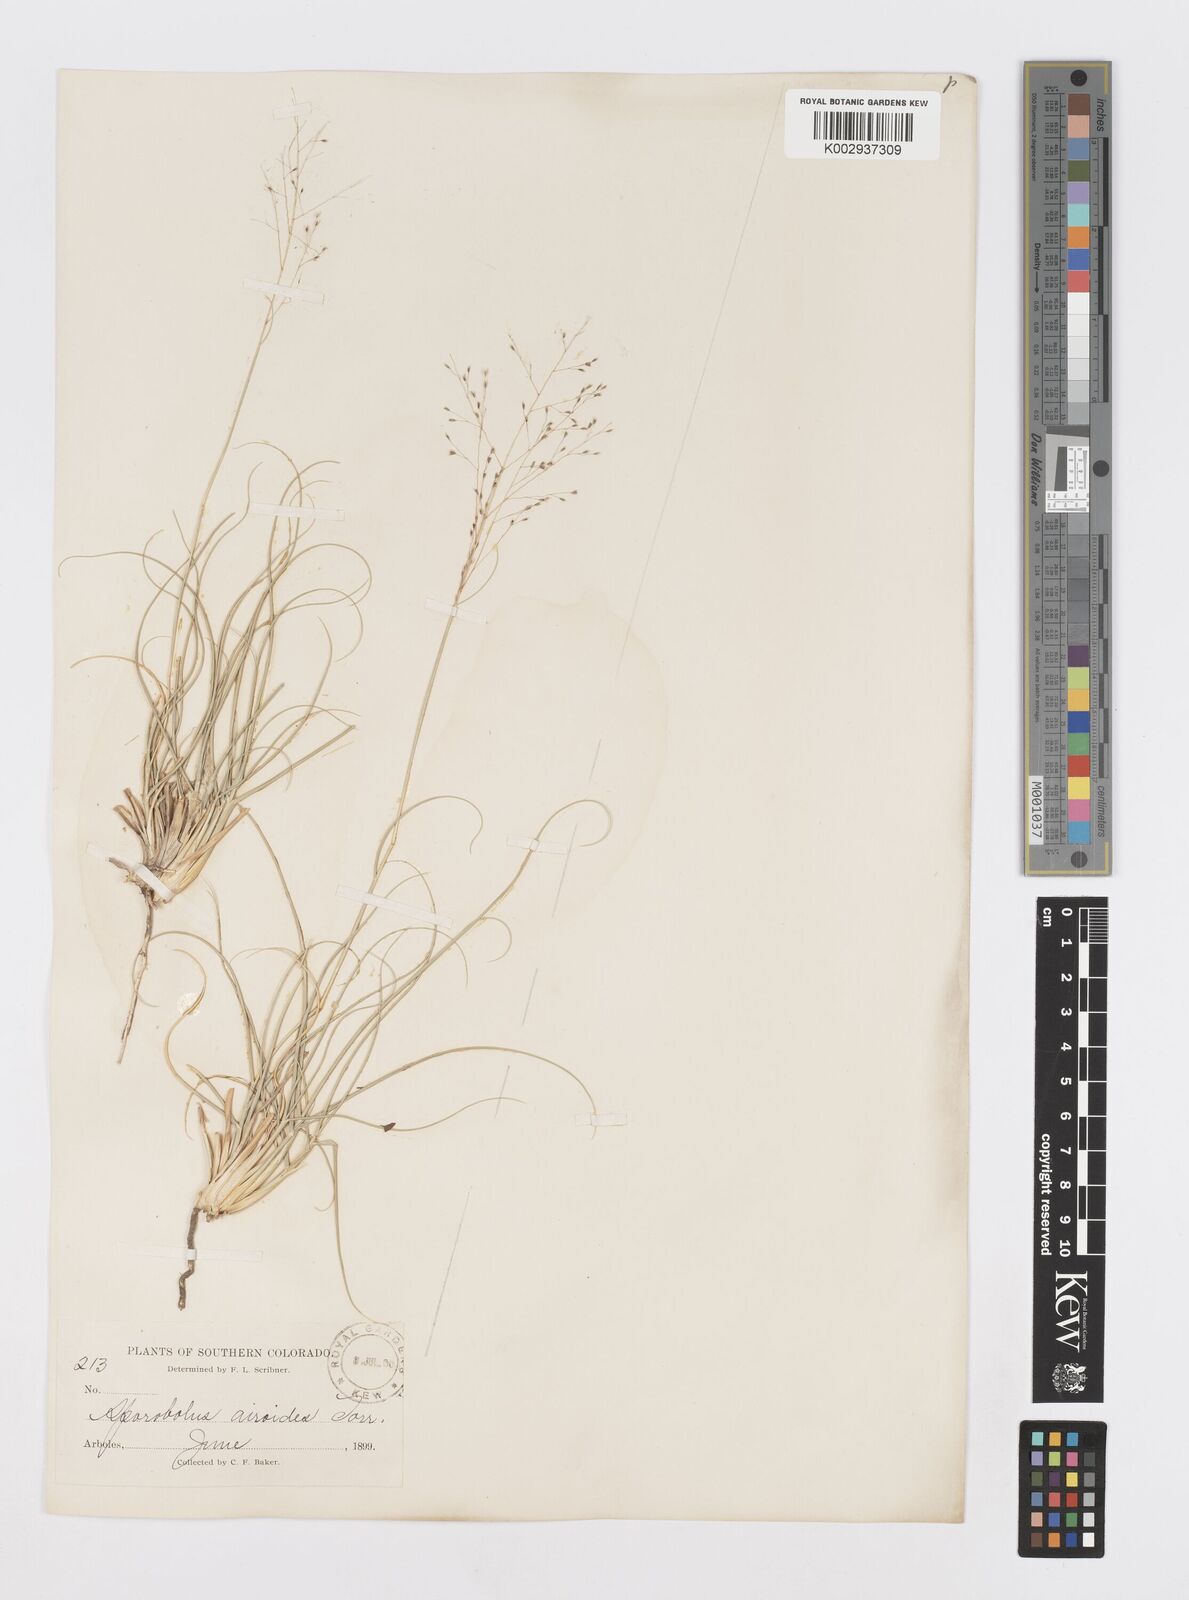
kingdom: Plantae
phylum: Tracheophyta
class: Liliopsida
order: Poales
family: Poaceae
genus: Sporobolus
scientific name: Sporobolus airoides
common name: Alkali sacaton
